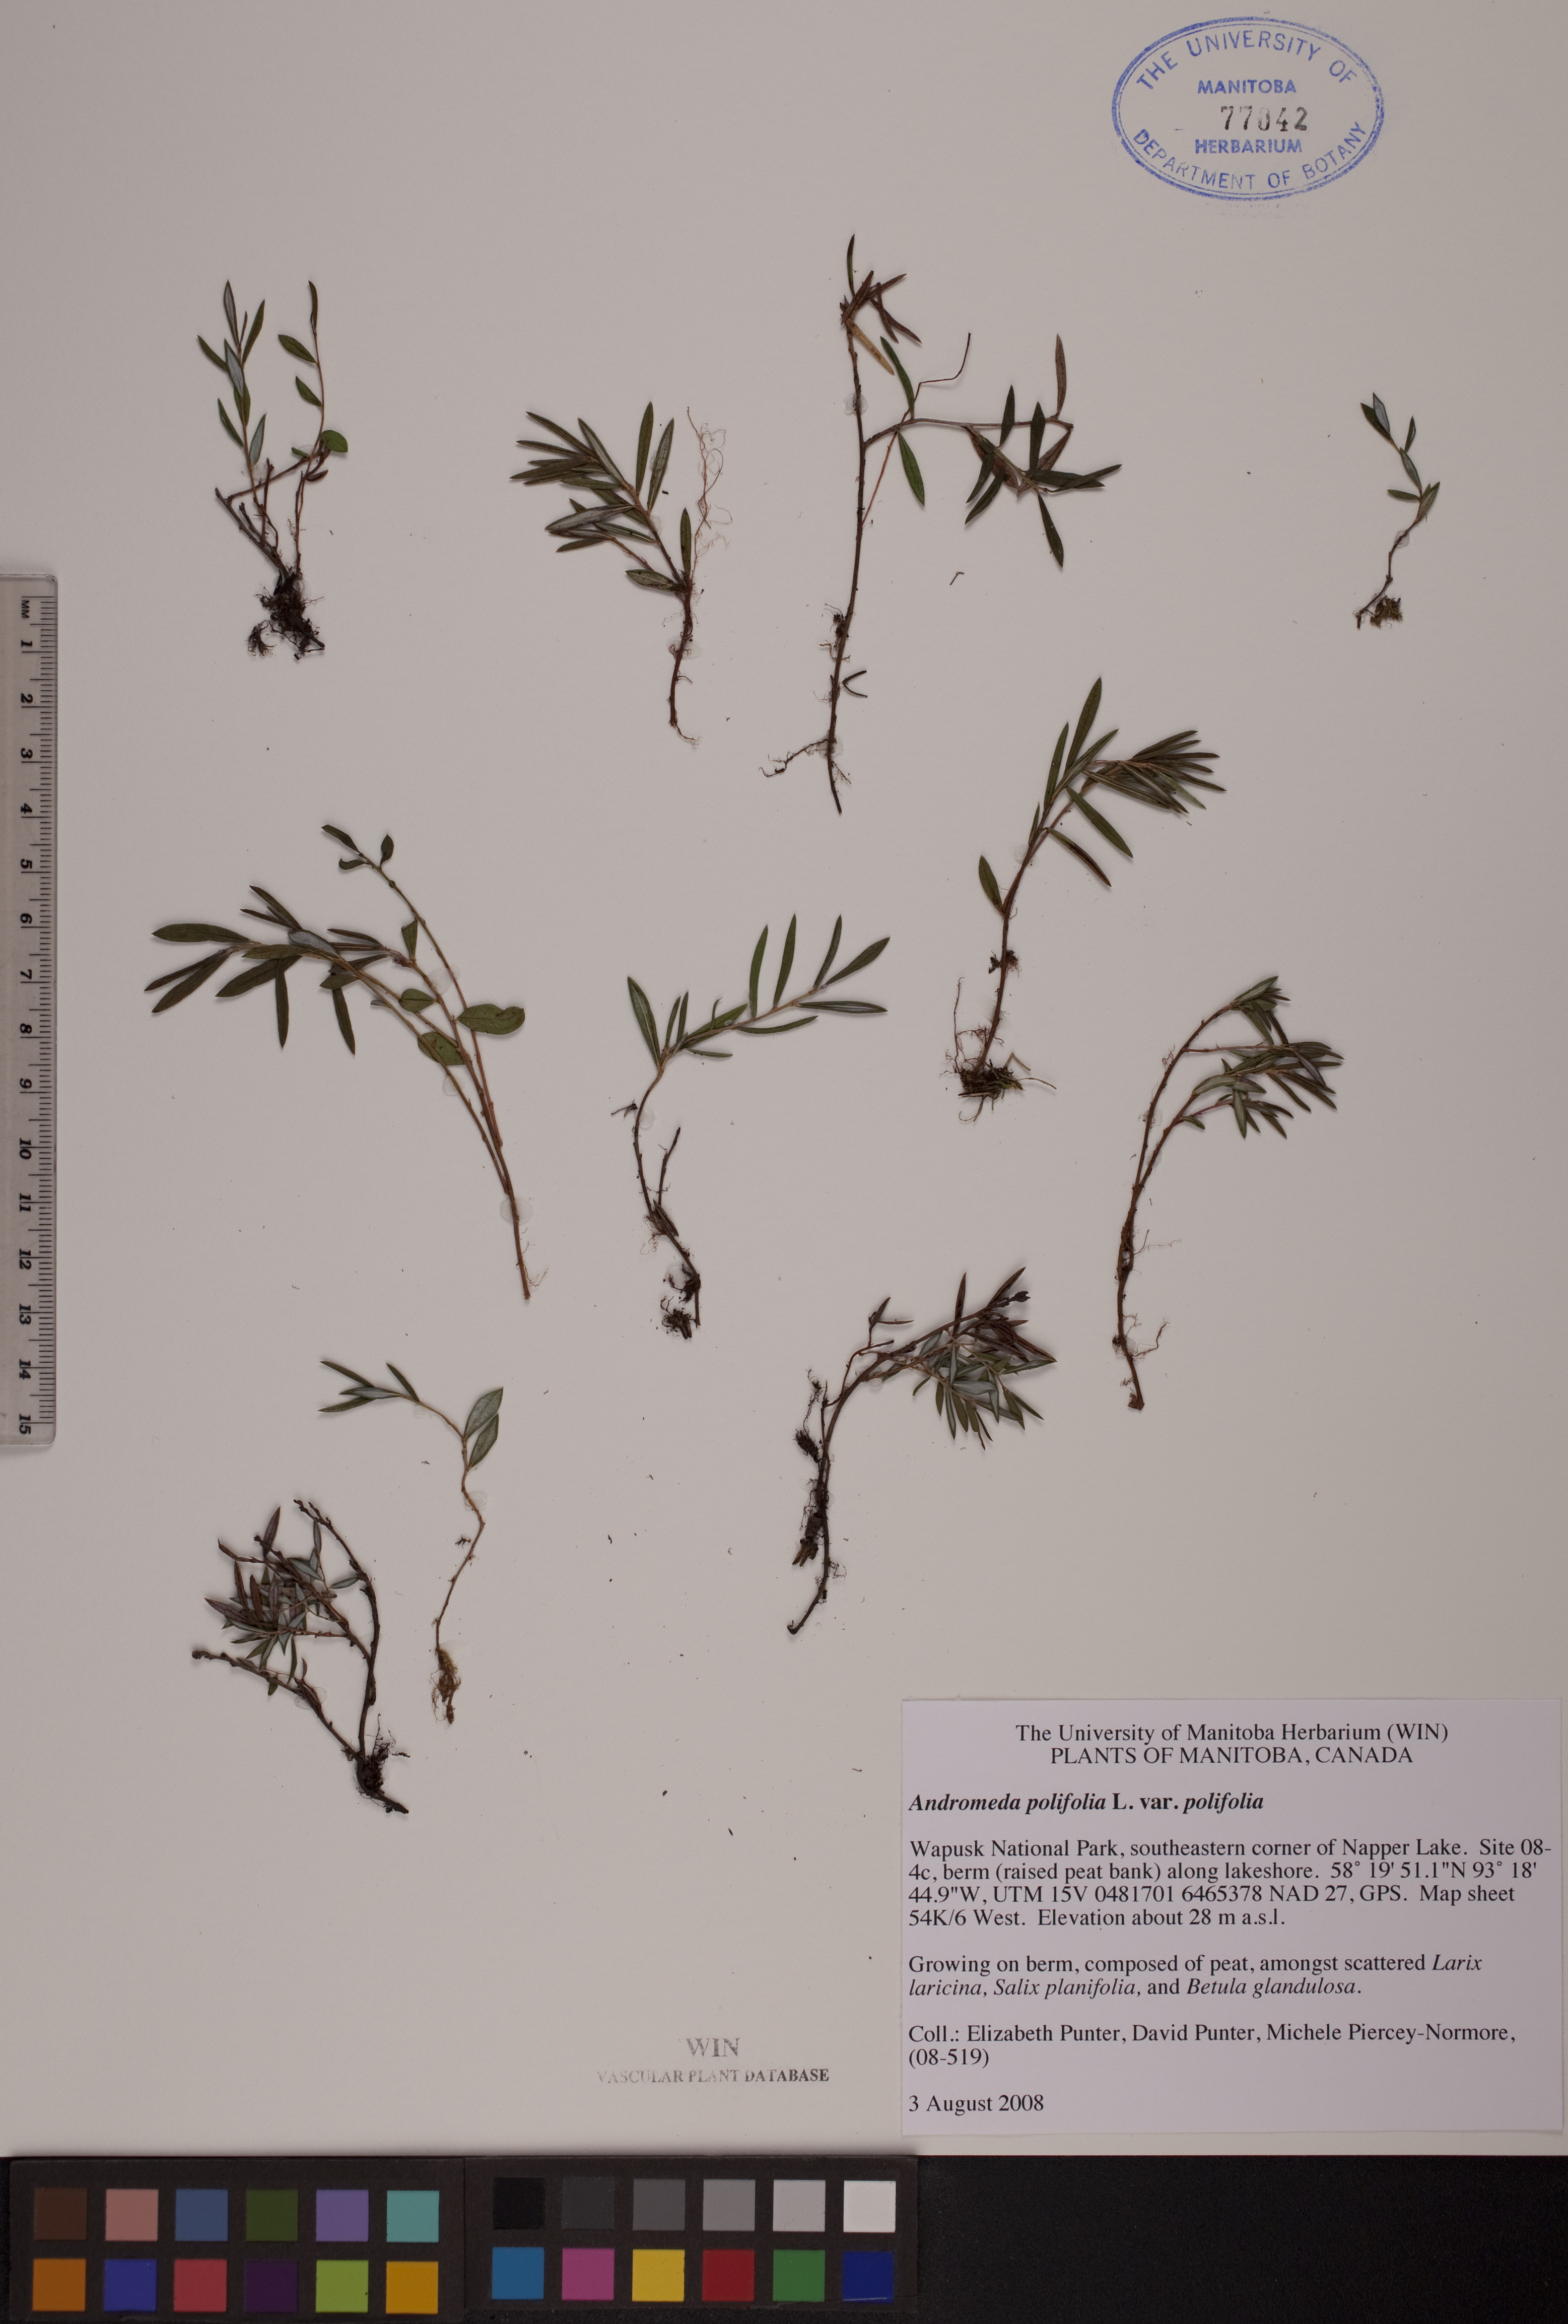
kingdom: Plantae
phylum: Tracheophyta
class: Magnoliopsida
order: Ericales
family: Ericaceae
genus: Andromeda
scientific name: Andromeda polifolia
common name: Bog-rosemary
